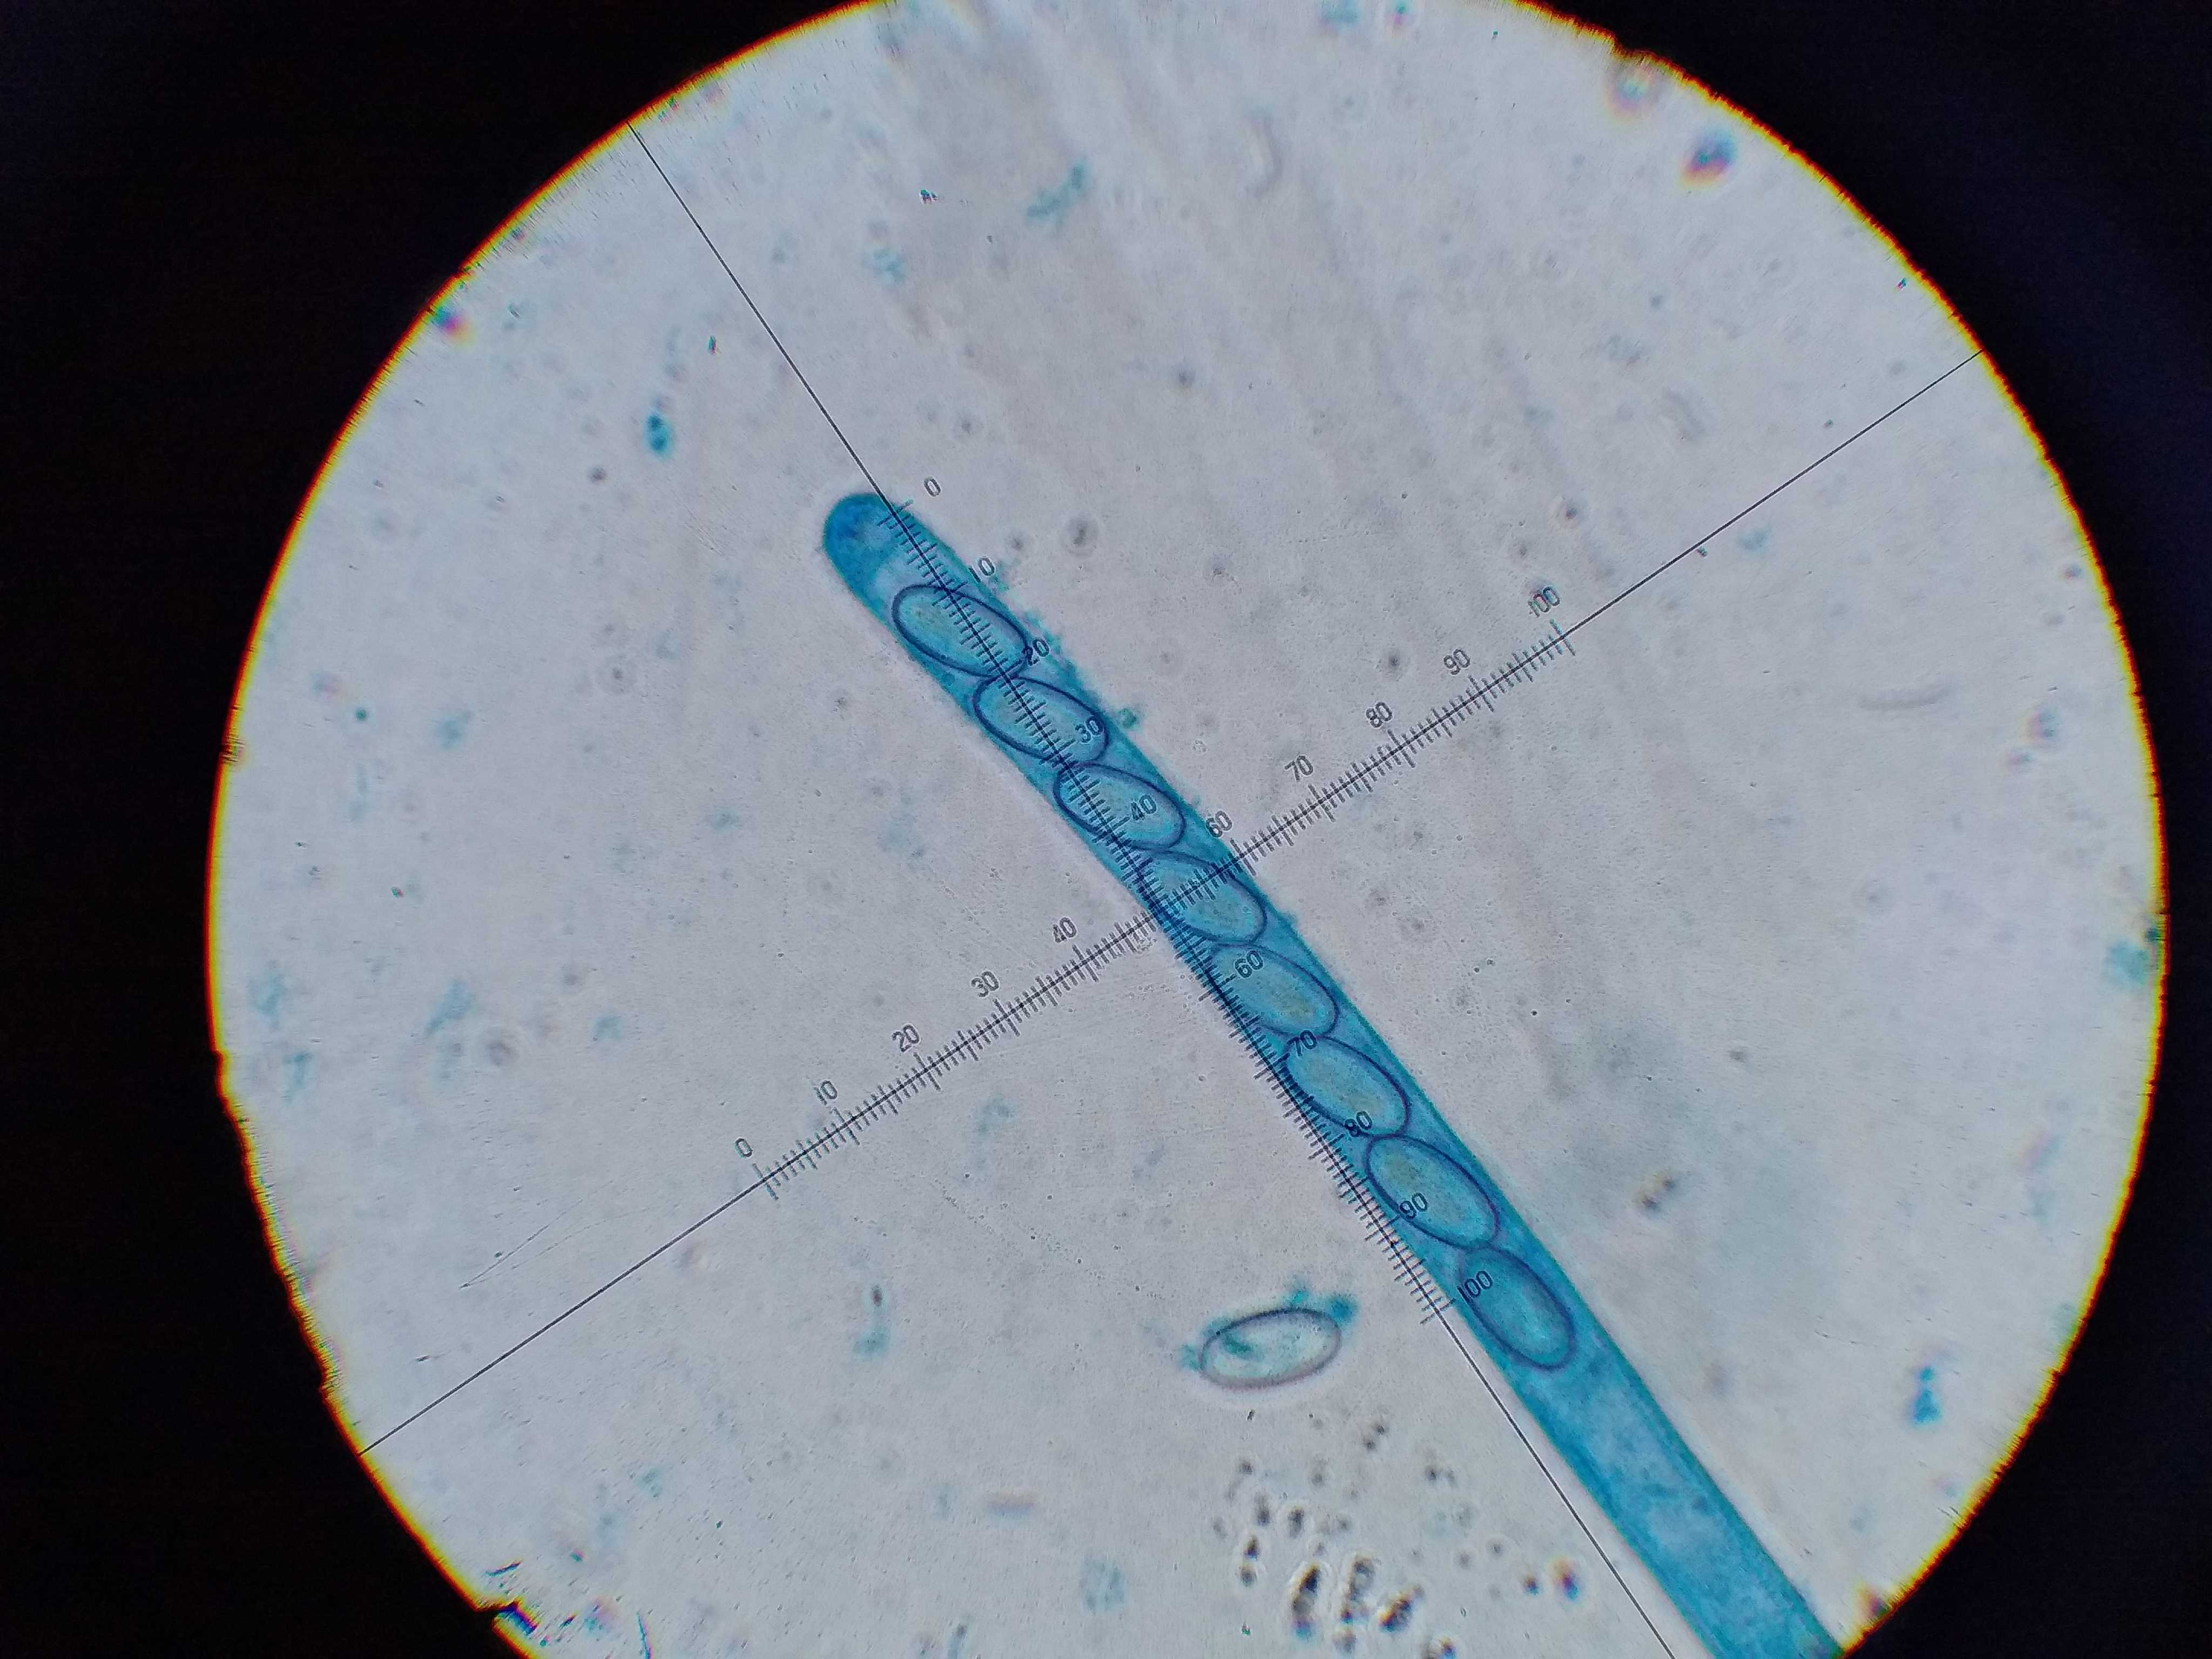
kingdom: Fungi
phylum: Ascomycota
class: Pezizomycetes
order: Pezizales
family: Pyronemataceae
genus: Cheilymenia
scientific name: Cheilymenia
